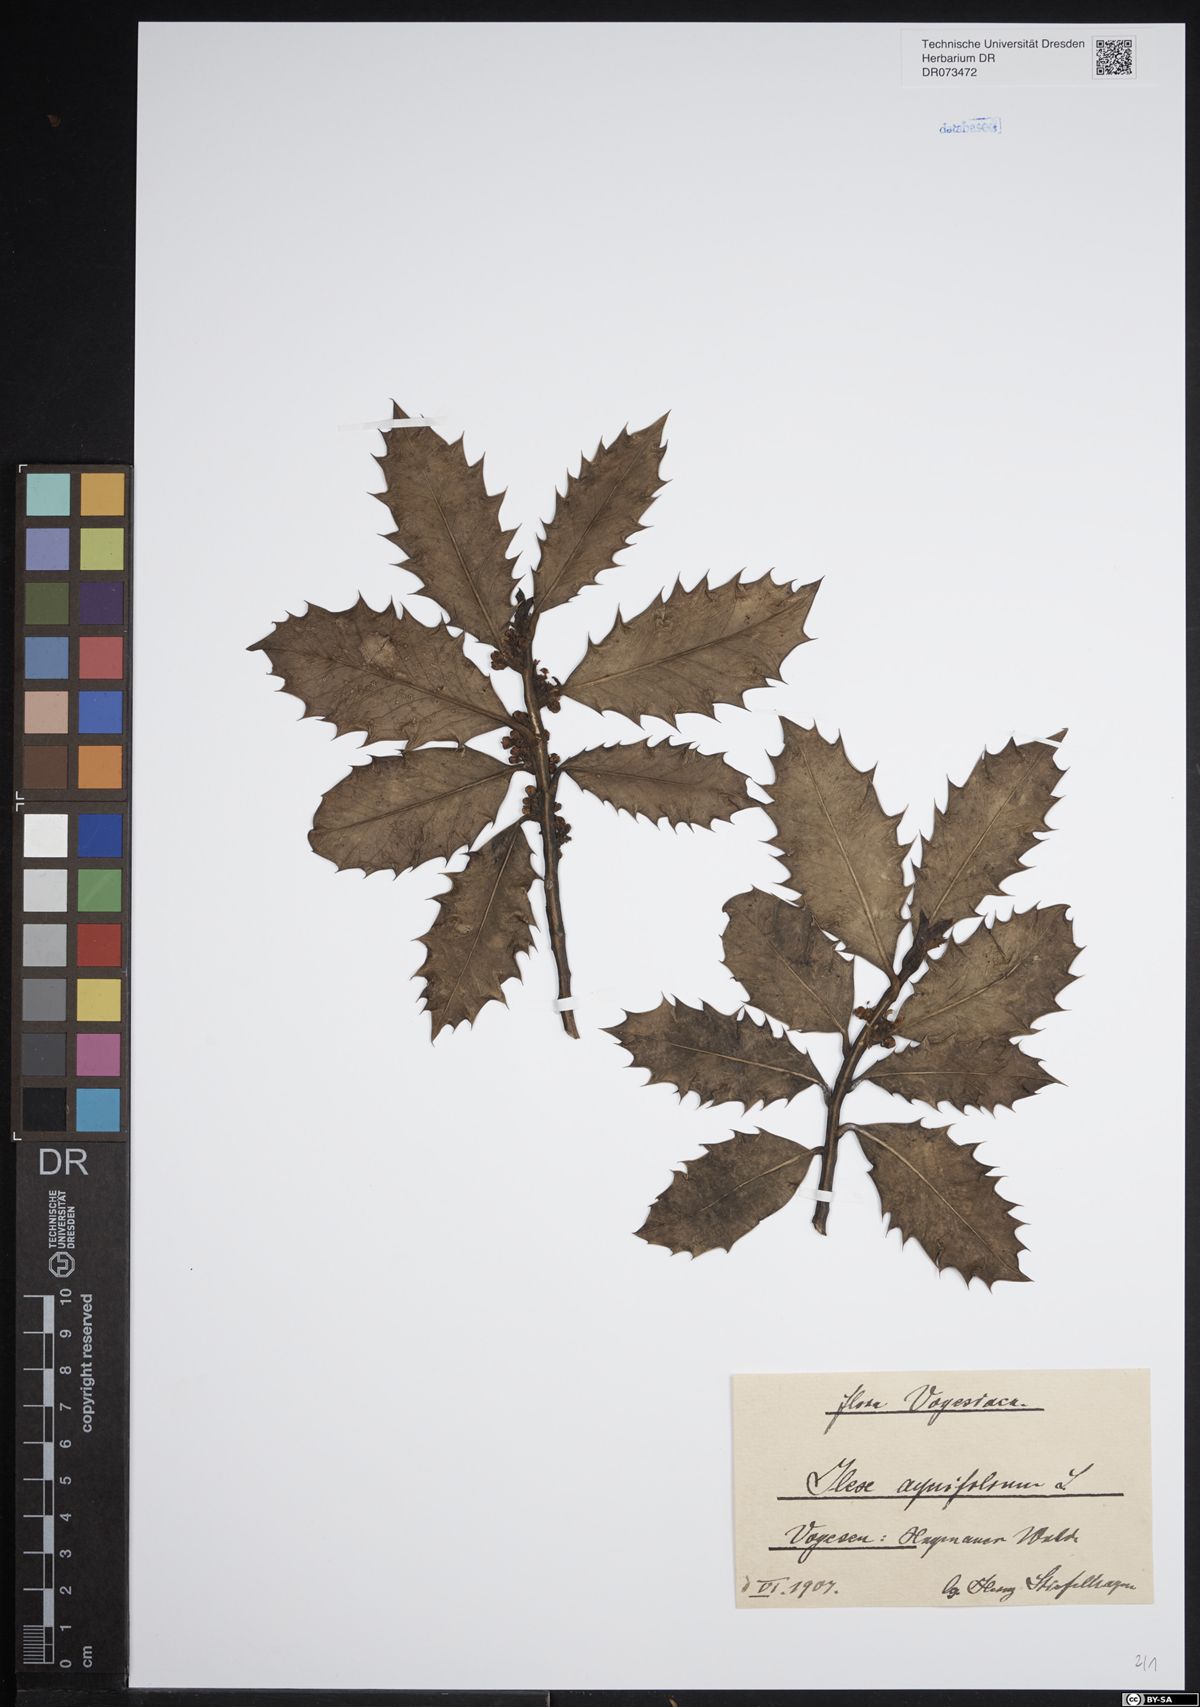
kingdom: Plantae
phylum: Tracheophyta
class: Magnoliopsida
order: Aquifoliales
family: Aquifoliaceae
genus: Ilex
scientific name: Ilex aquifolium
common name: English holly
